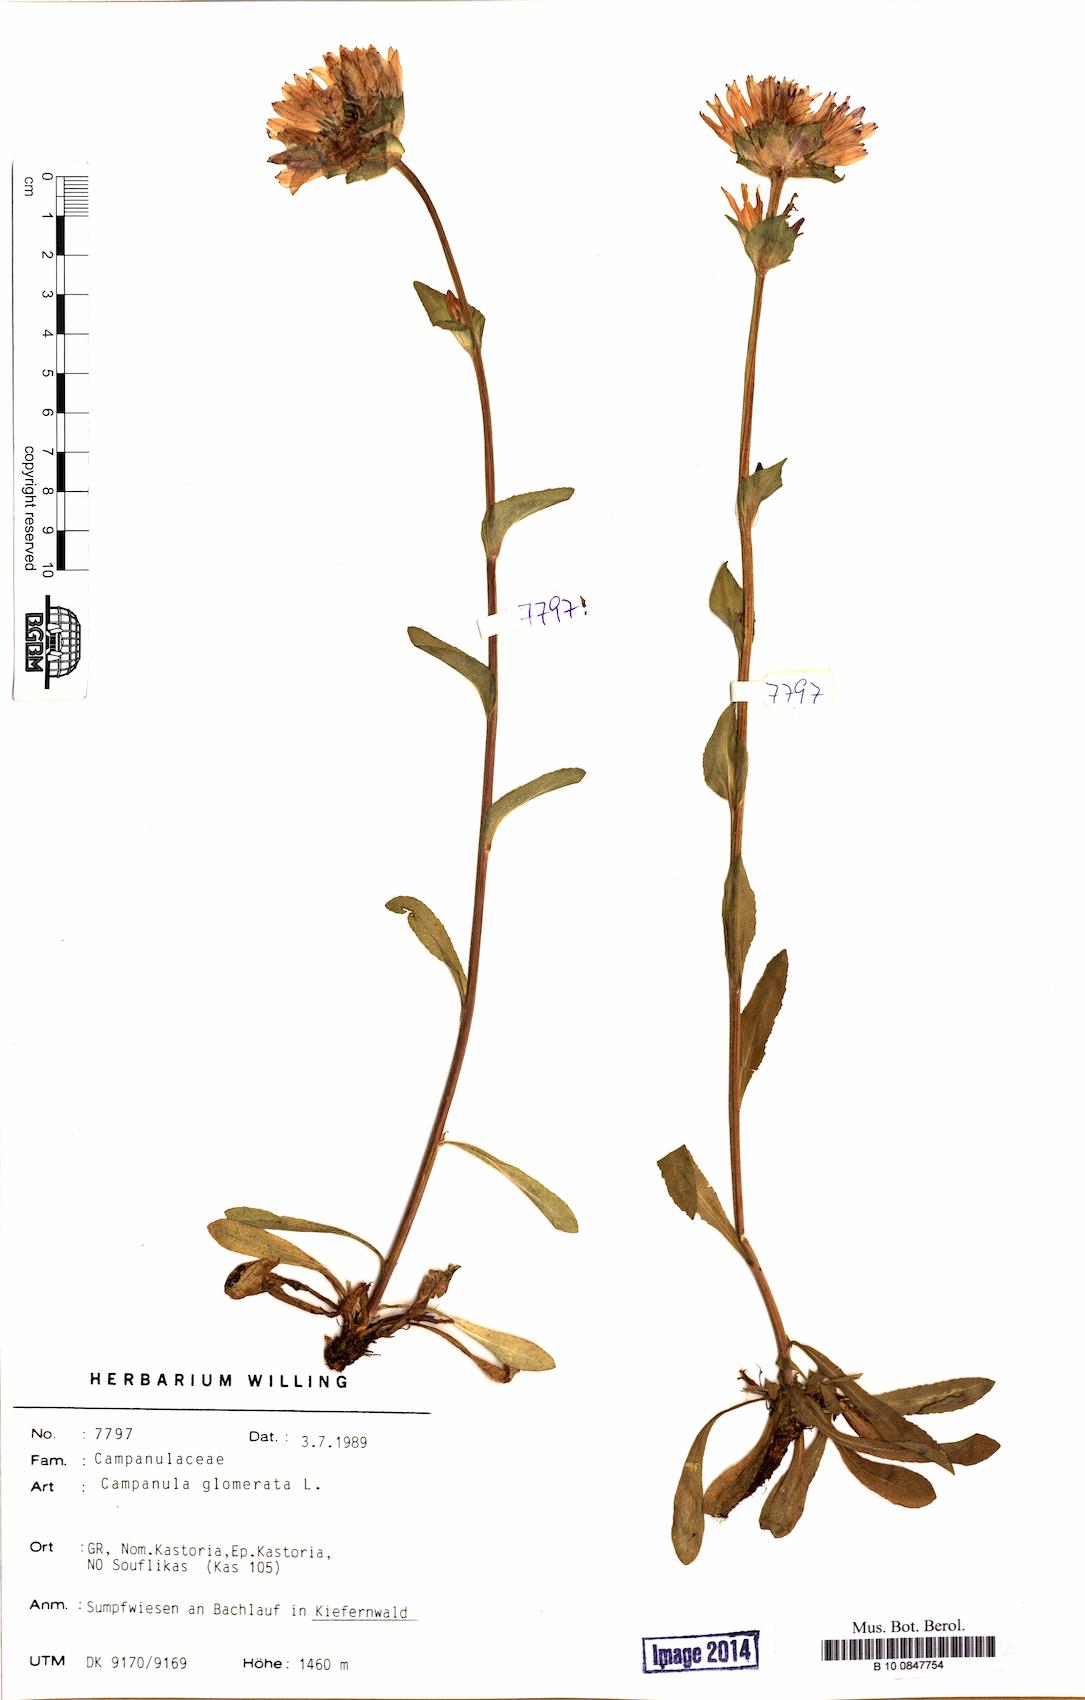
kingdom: Plantae
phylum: Tracheophyta
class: Magnoliopsida
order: Asterales
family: Campanulaceae
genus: Campanula
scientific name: Campanula glomerata
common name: Clustered bellflower
